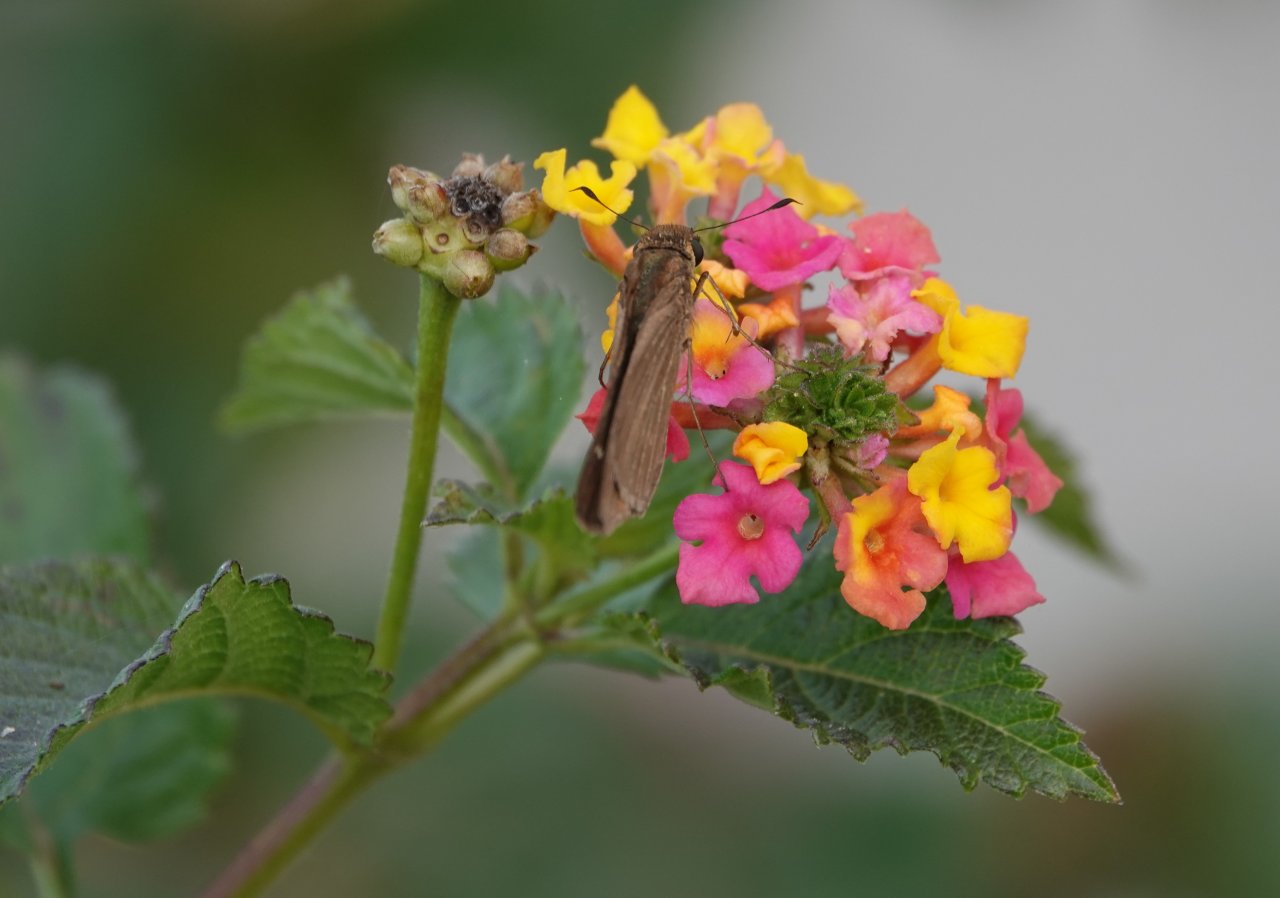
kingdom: Animalia
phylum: Arthropoda
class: Insecta
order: Lepidoptera
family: Nymphalidae
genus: Dione
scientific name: Dione vanillae
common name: Gulf Fritillary
